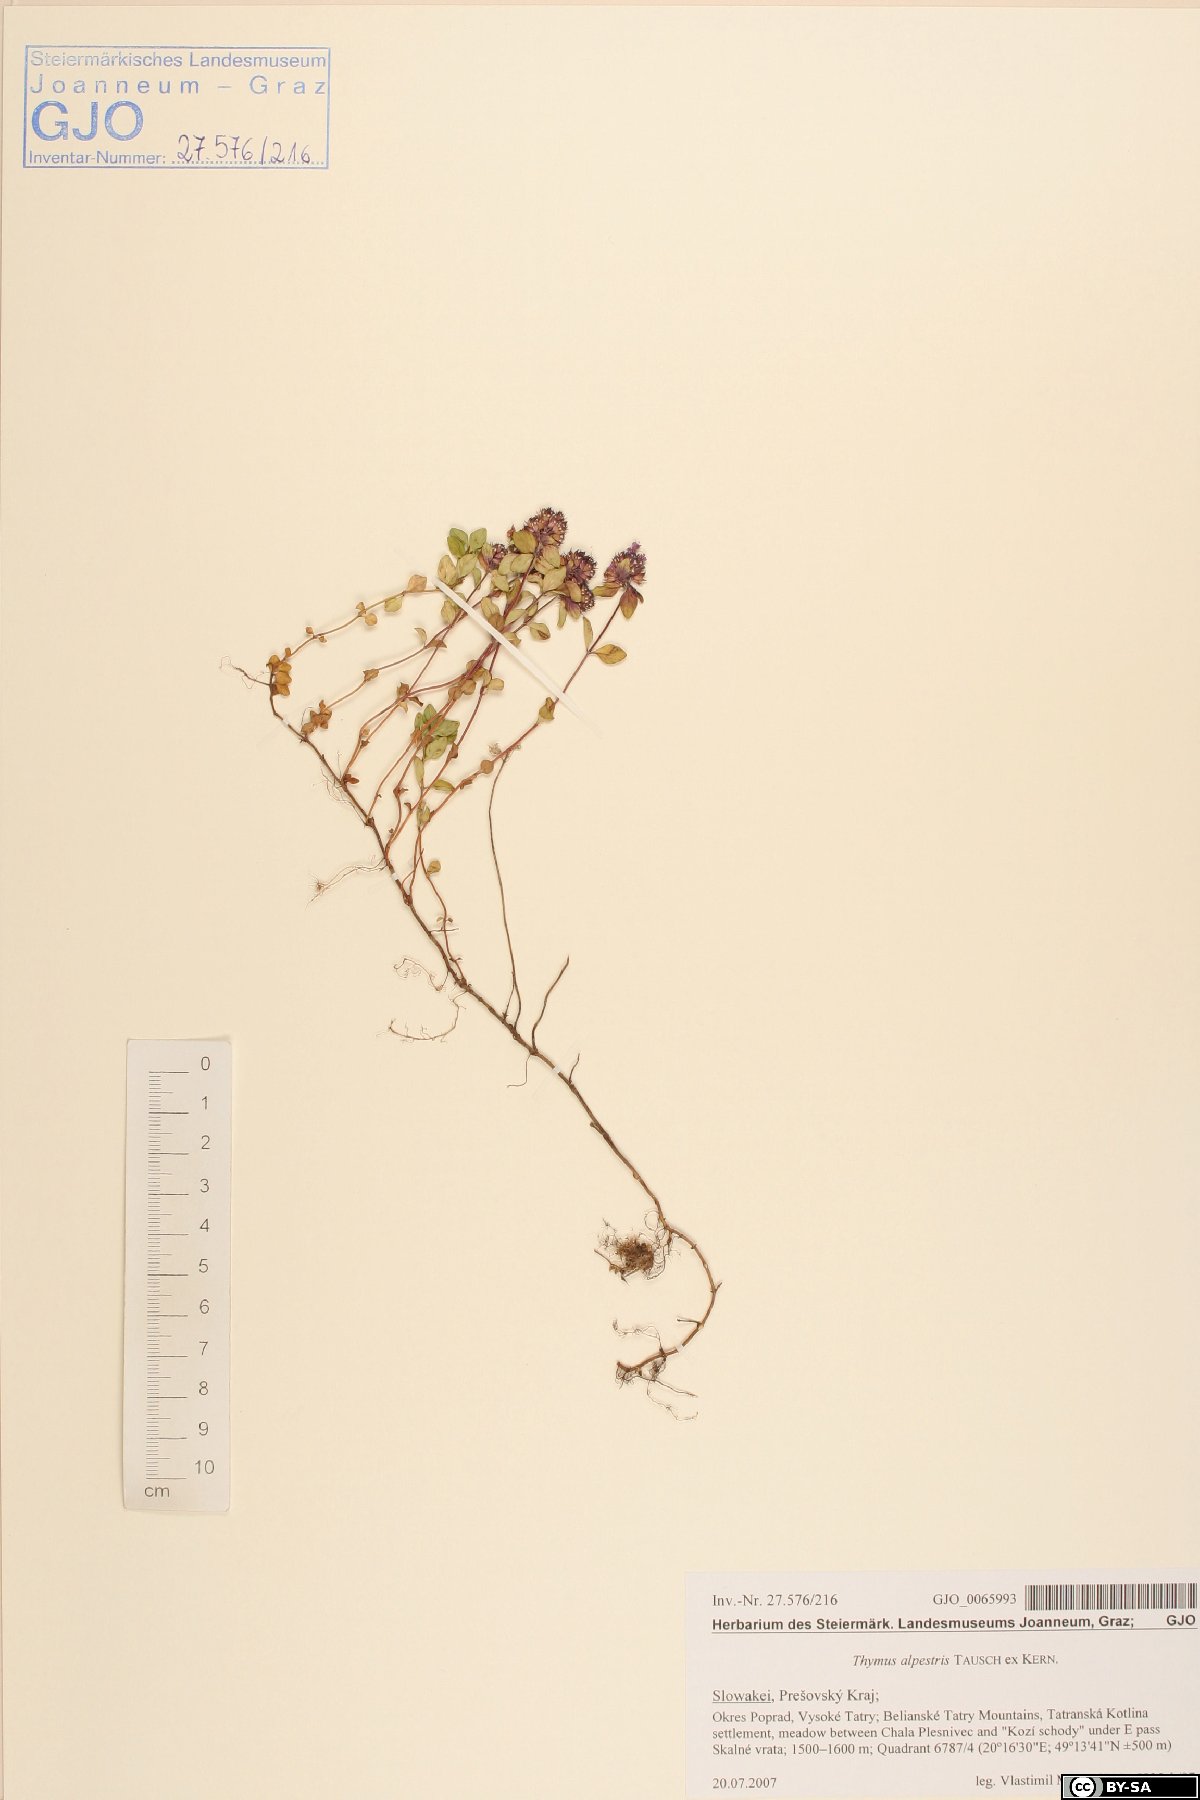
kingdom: Plantae
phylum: Tracheophyta
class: Magnoliopsida
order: Lamiales
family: Lamiaceae
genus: Thymus
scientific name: Thymus alpestris
